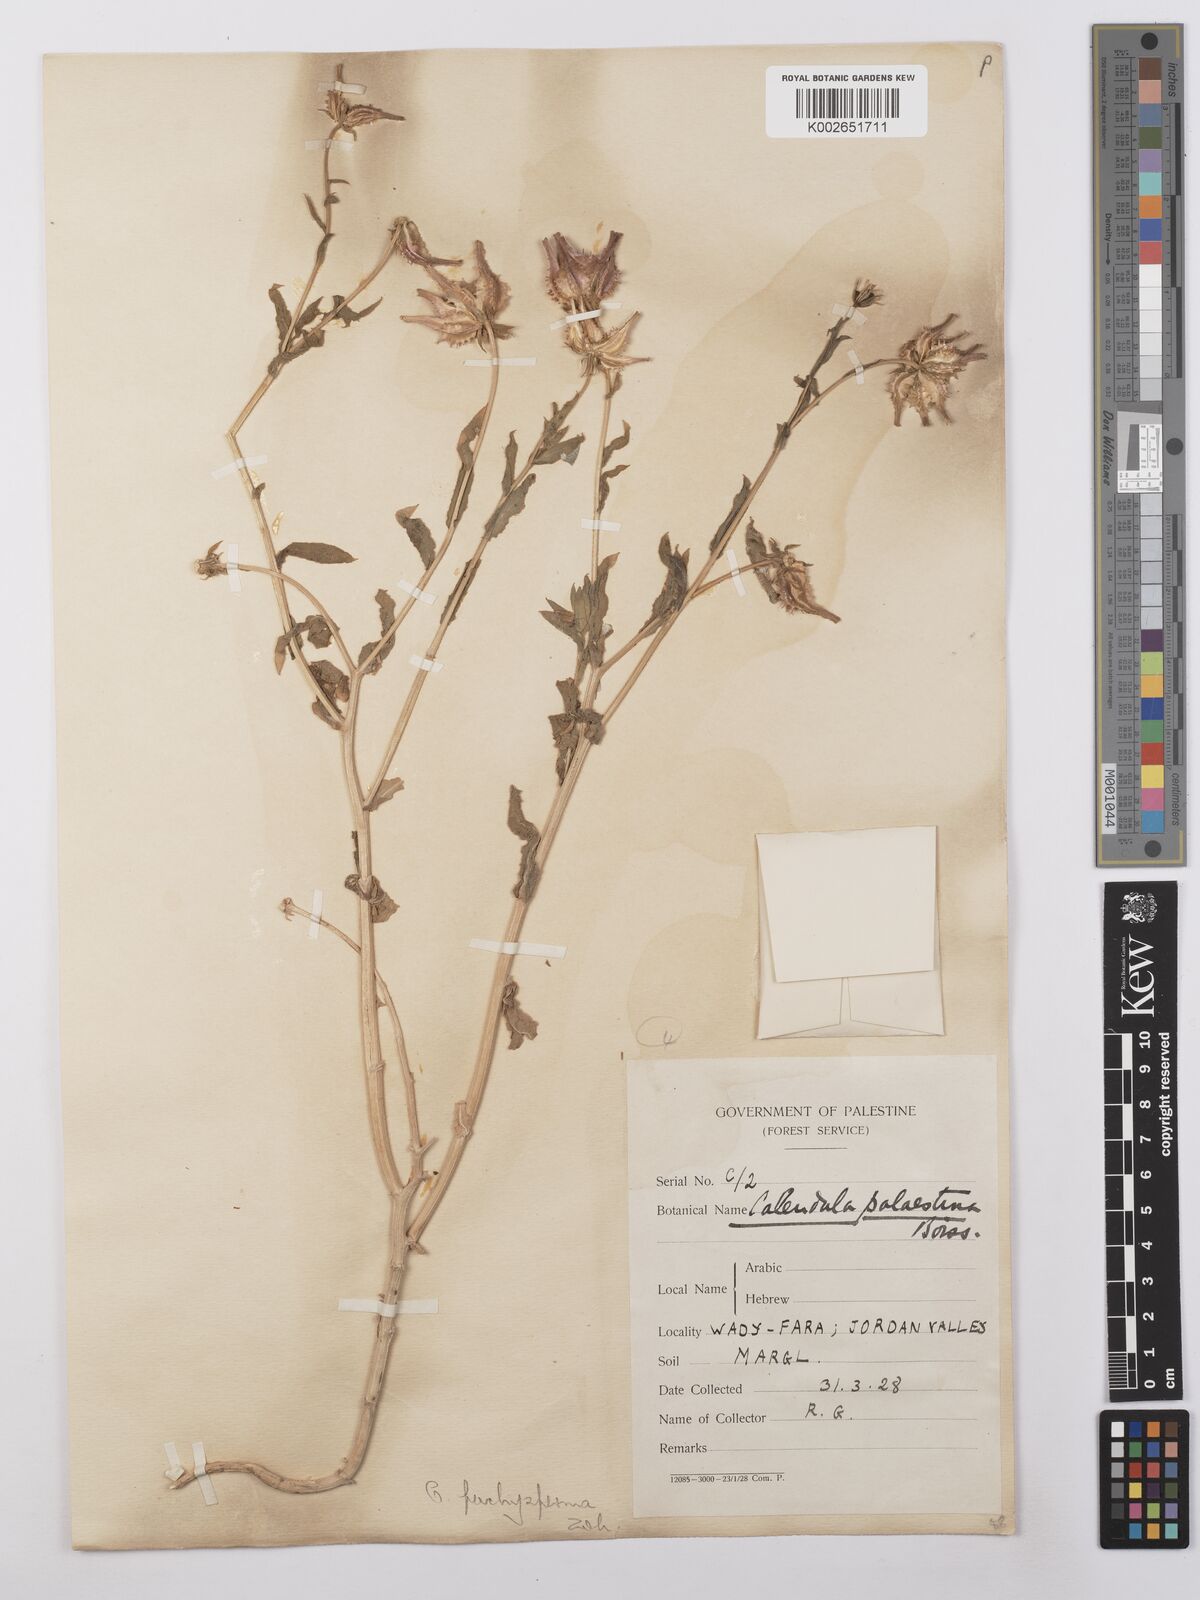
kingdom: Plantae
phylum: Tracheophyta
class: Magnoliopsida
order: Asterales
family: Asteraceae
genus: Calendula
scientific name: Calendula pachysperma
